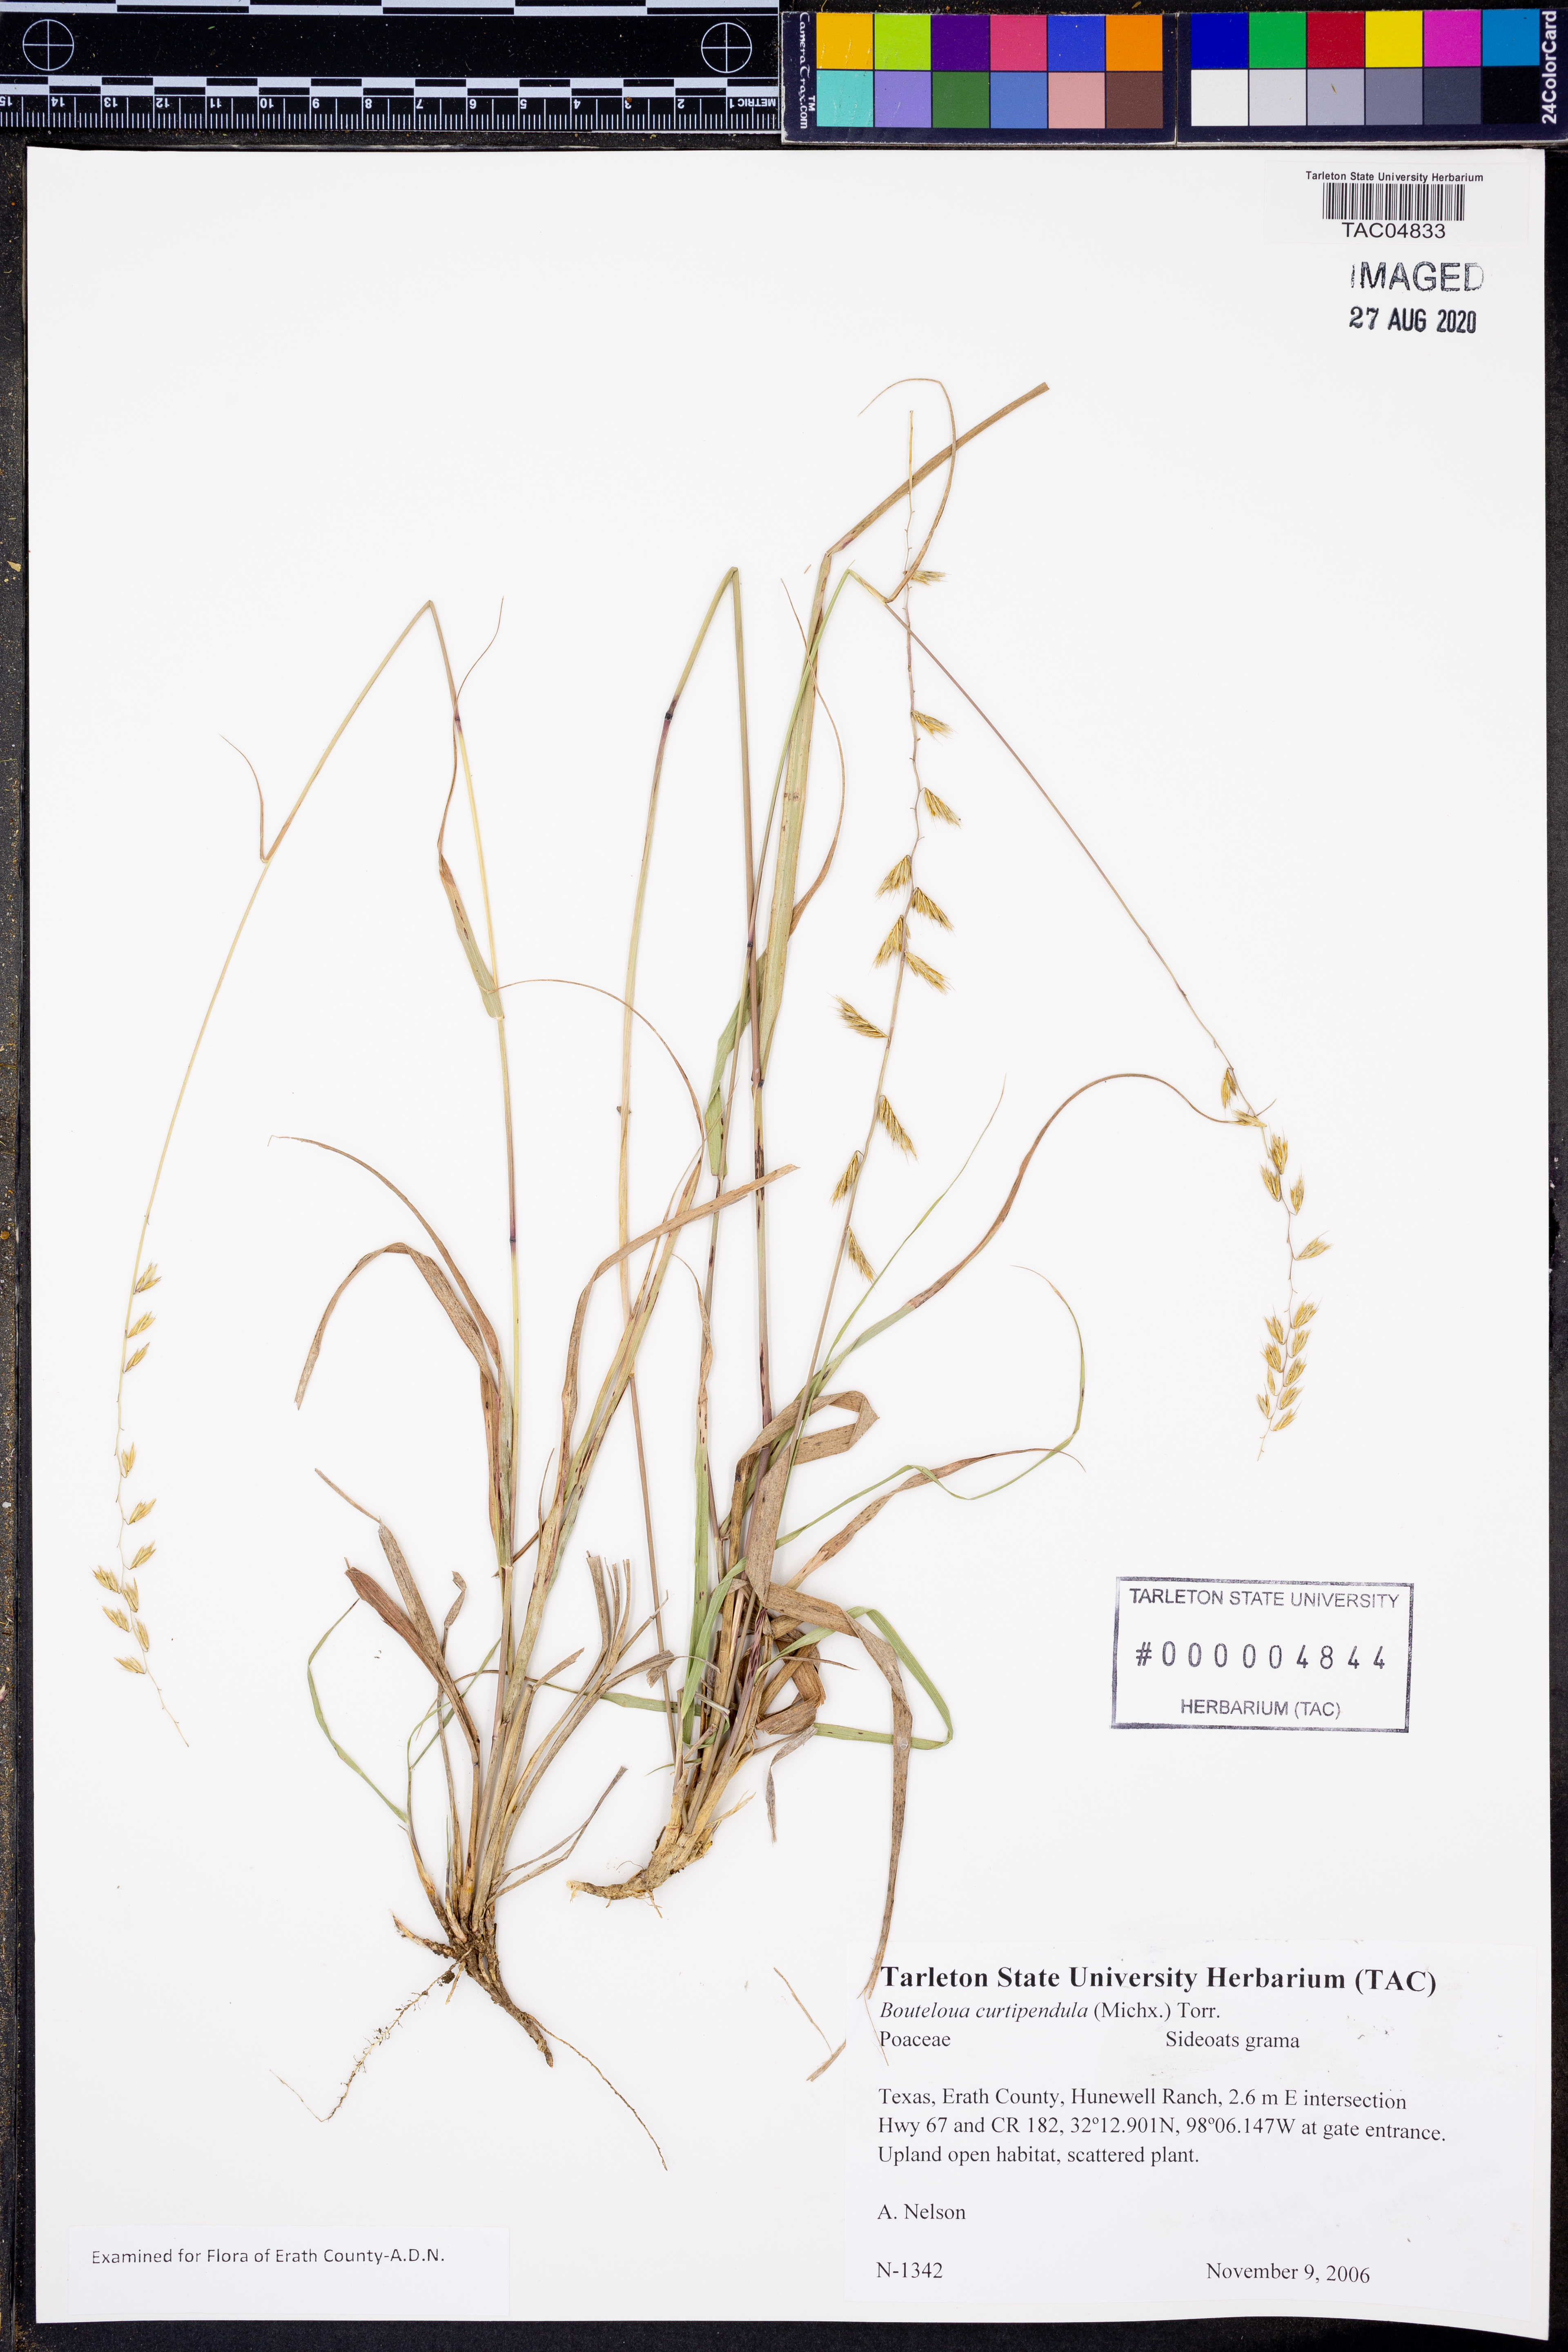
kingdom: Plantae
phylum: Tracheophyta
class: Liliopsida
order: Poales
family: Poaceae
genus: Bouteloua
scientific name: Bouteloua curtipendula
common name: Side-oats grama
